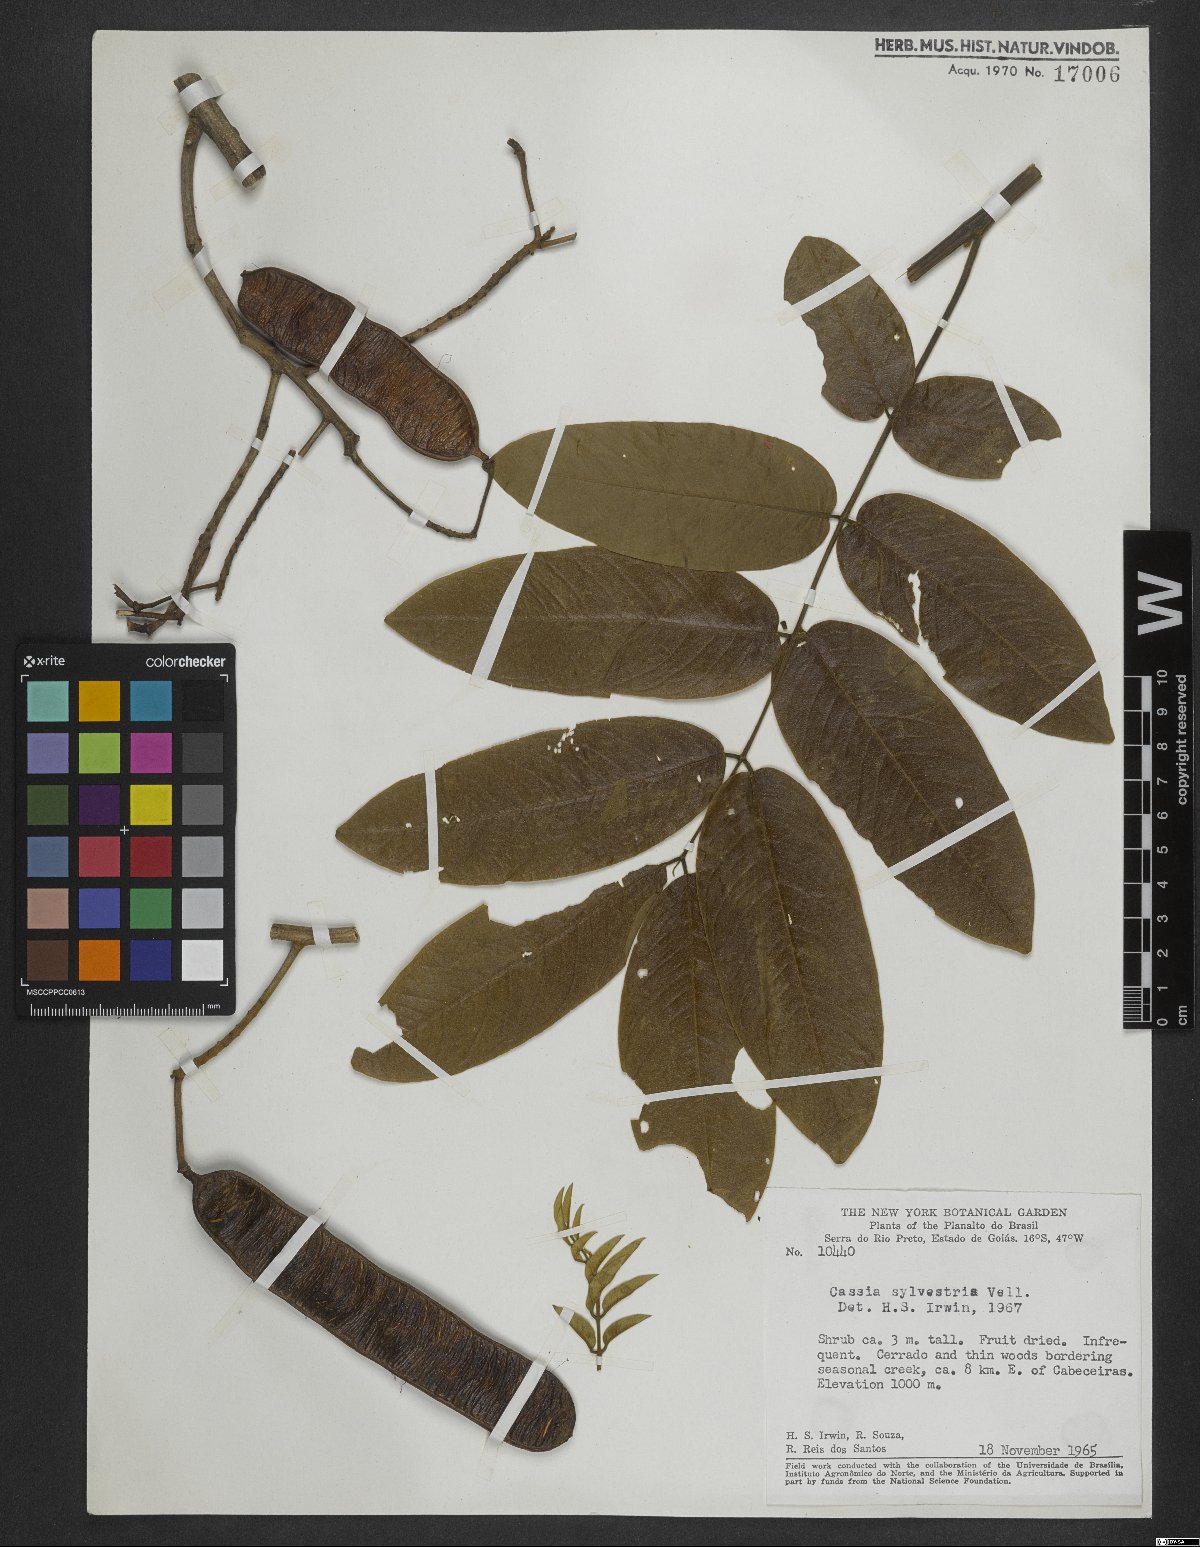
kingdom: Plantae
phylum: Tracheophyta
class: Magnoliopsida
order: Fabales
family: Fabaceae
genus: Senna
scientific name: Senna silvestris
